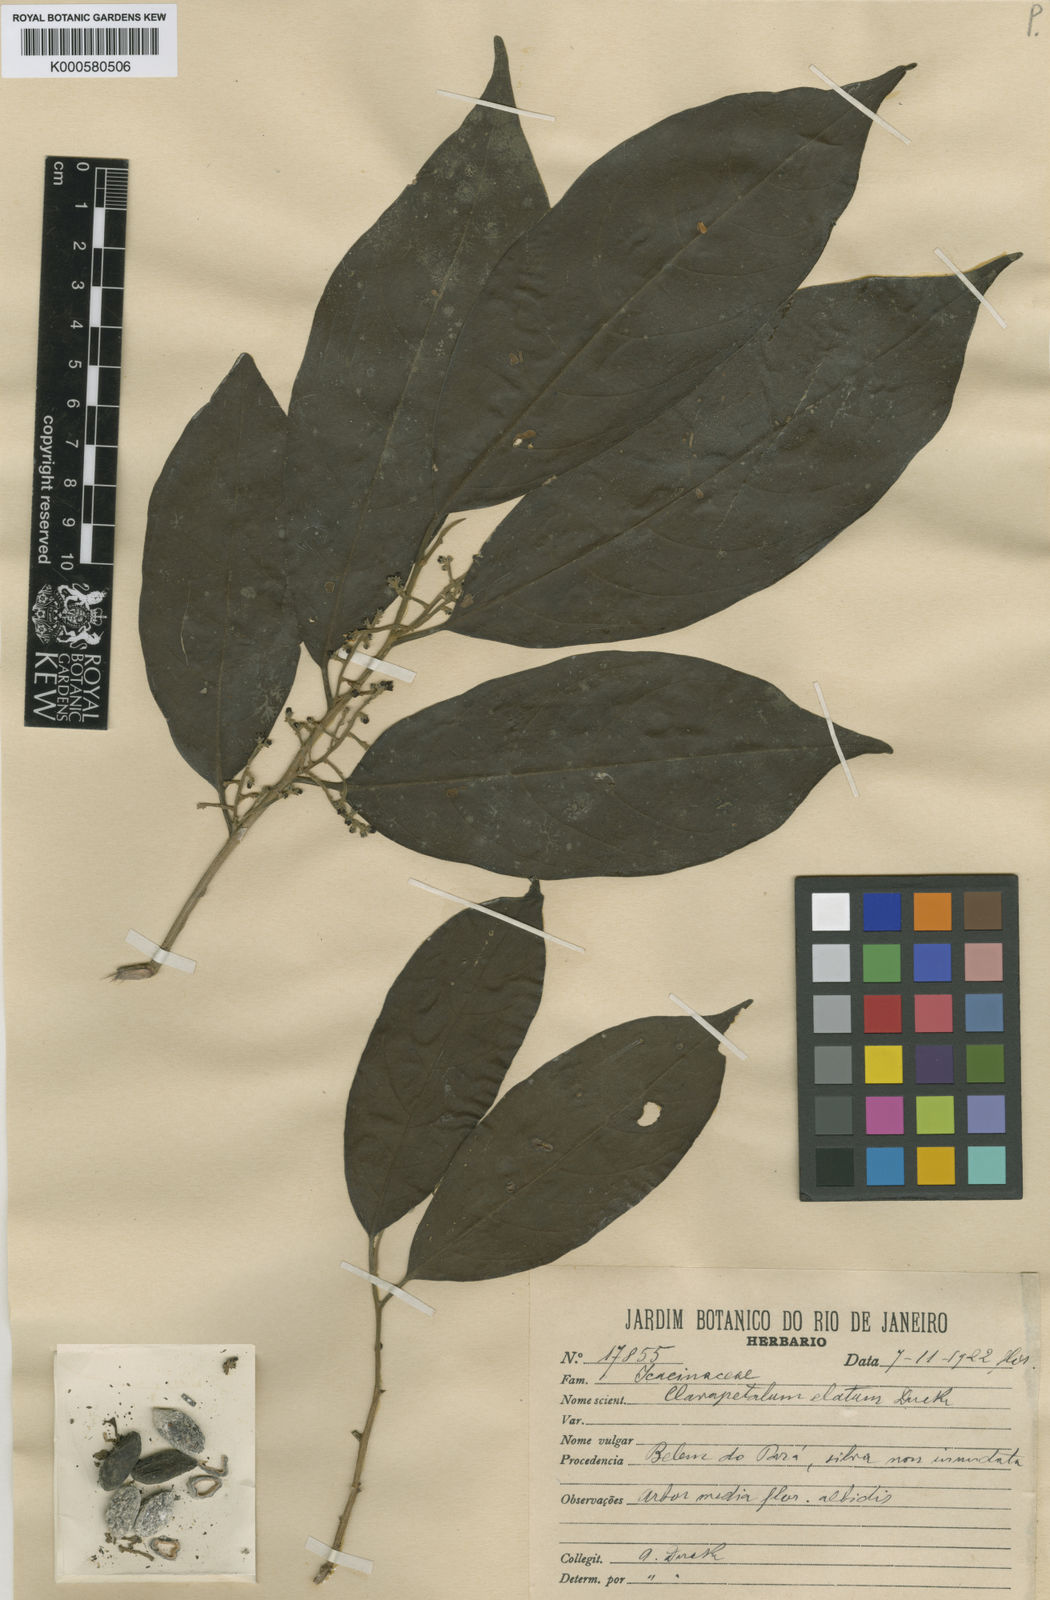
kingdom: Plantae
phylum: Tracheophyta
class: Magnoliopsida
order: Metteniusales
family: Metteniusaceae
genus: Dendrobangia
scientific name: Dendrobangia boliviana
